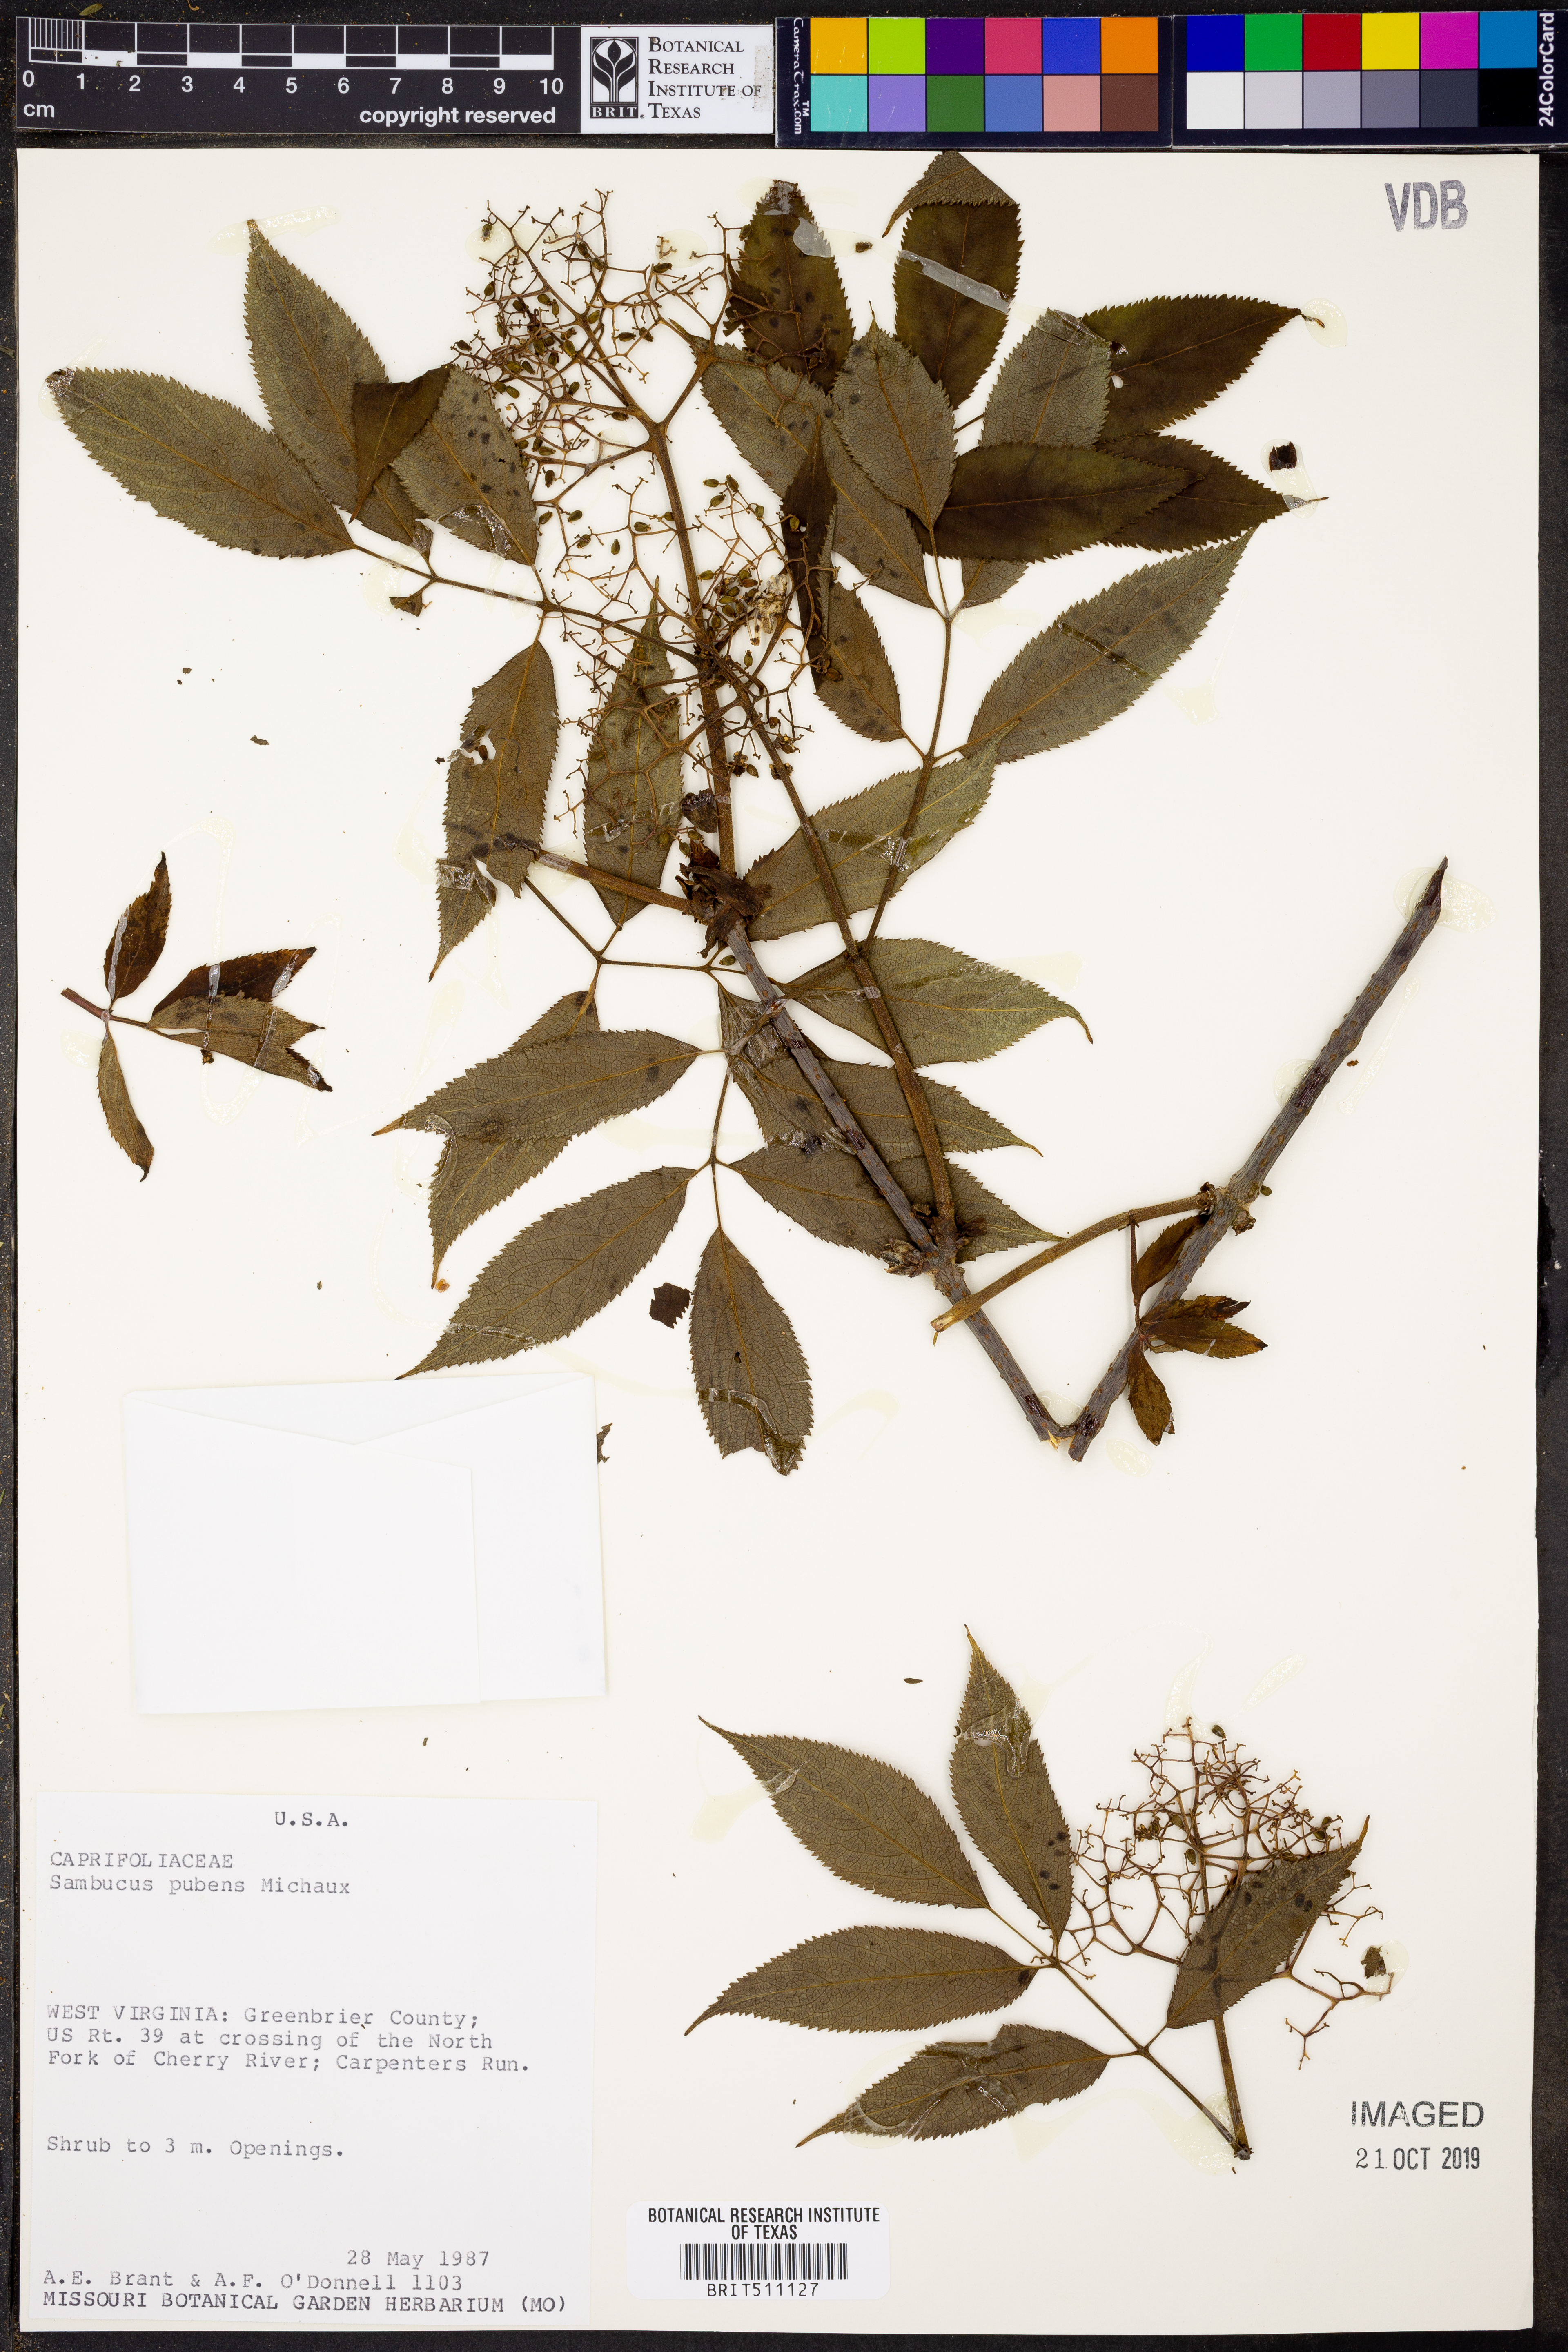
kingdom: Plantae
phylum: Tracheophyta
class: Magnoliopsida
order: Dipsacales
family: Viburnaceae
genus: Sambucus
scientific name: Sambucus racemosa
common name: Red-berried elder
